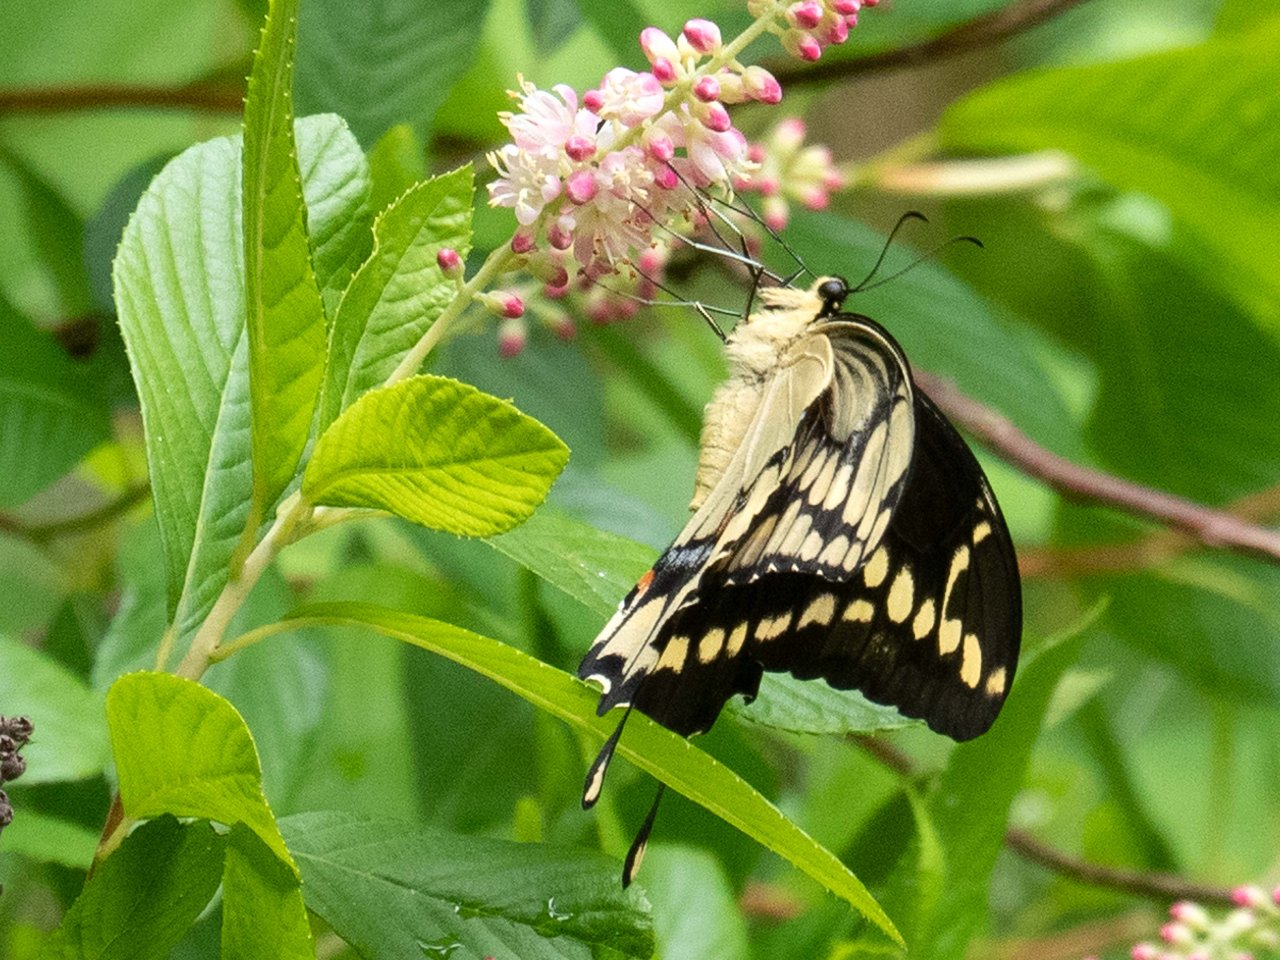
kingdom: Animalia
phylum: Arthropoda
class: Insecta
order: Lepidoptera
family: Papilionidae
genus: Papilio
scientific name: Papilio cresphontes
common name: Eastern Giant Swallowtail
